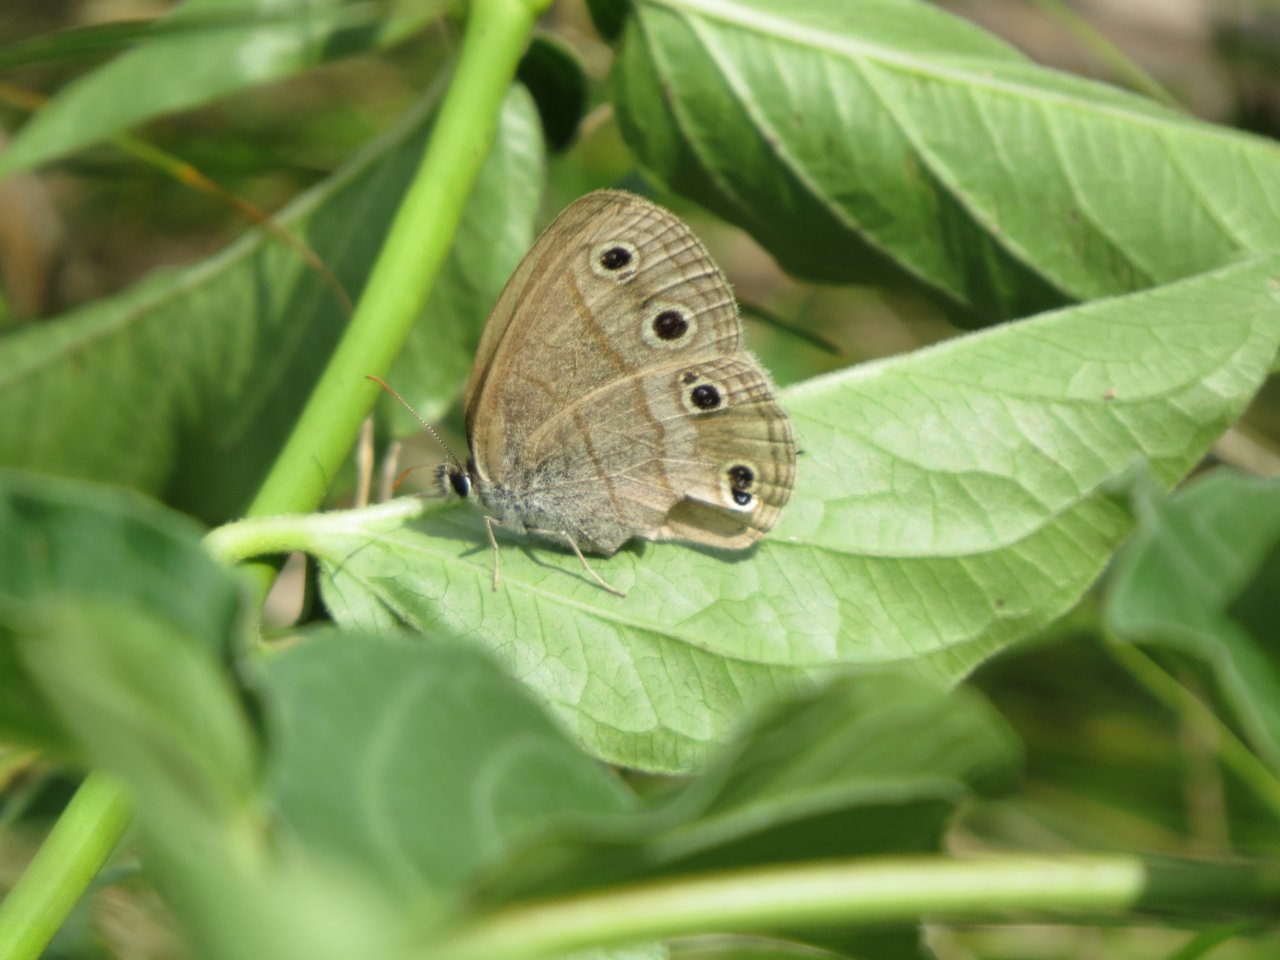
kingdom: Animalia
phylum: Arthropoda
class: Insecta
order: Lepidoptera
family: Nymphalidae
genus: Euptychia
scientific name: Euptychia cymela
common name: Little Wood Satyr
